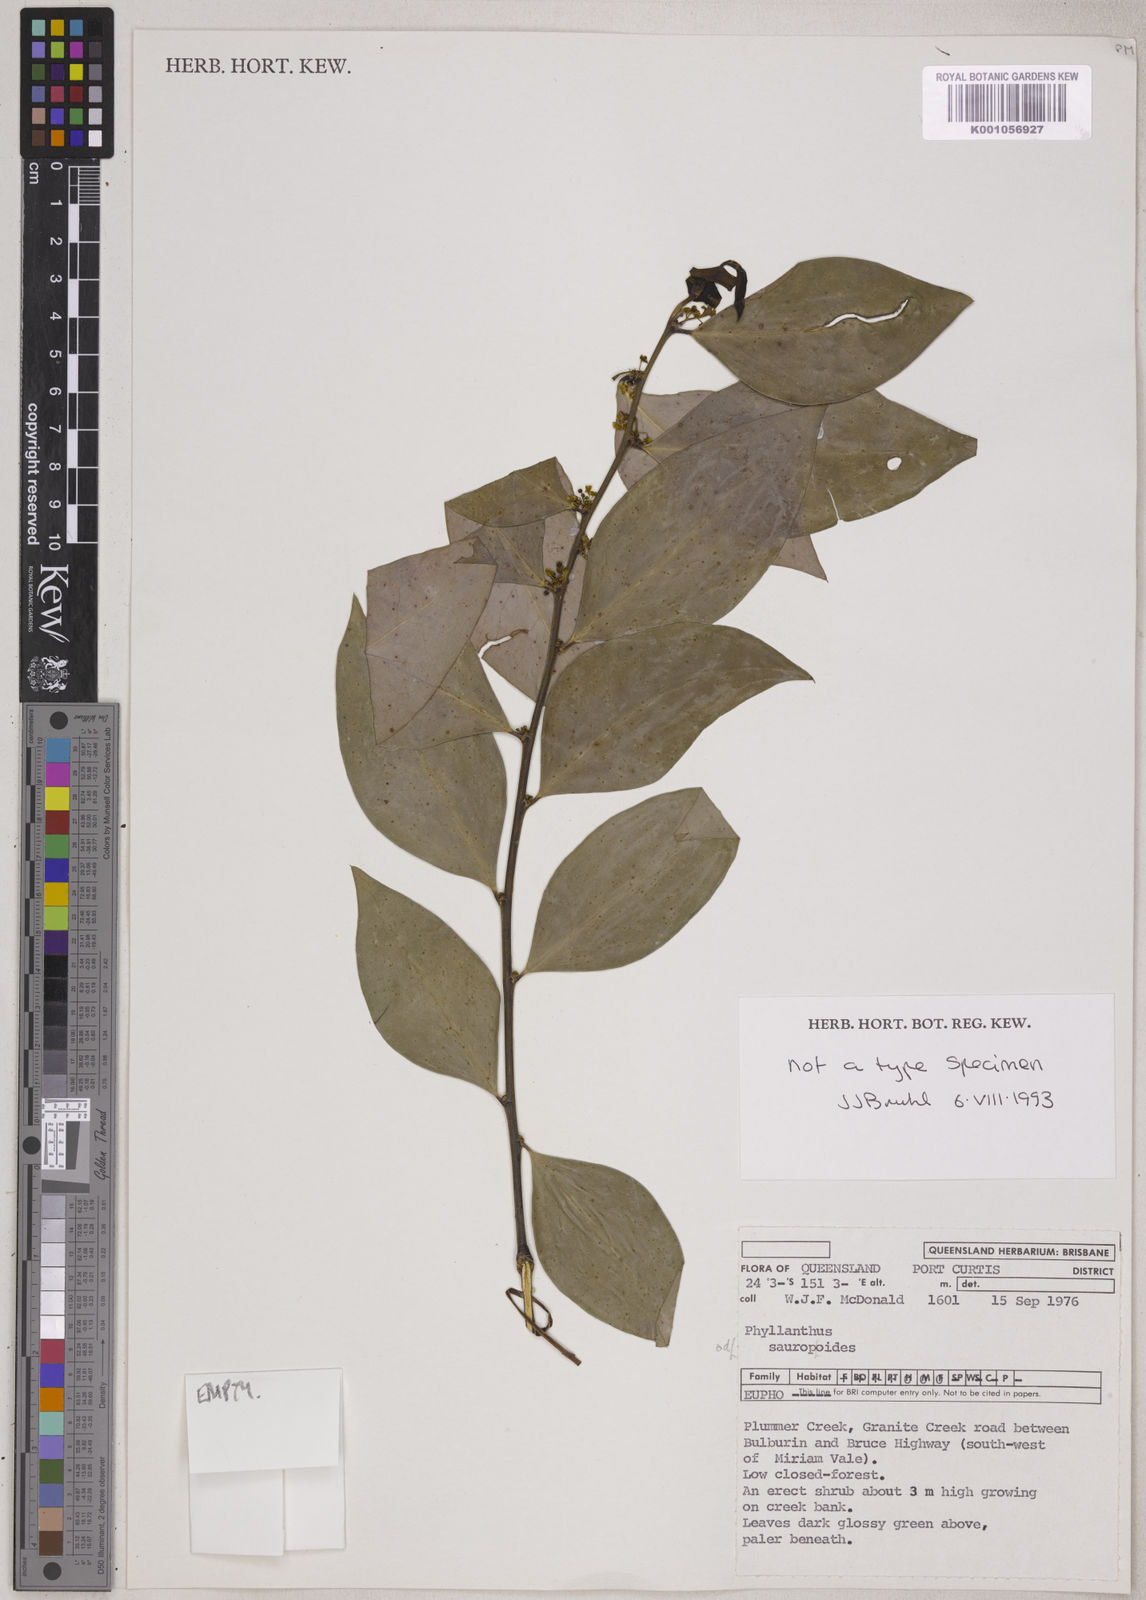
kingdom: Plantae
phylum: Tracheophyta
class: Magnoliopsida
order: Malpighiales
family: Phyllanthaceae
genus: Phyllanthus
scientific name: Phyllanthus sauropodoides
